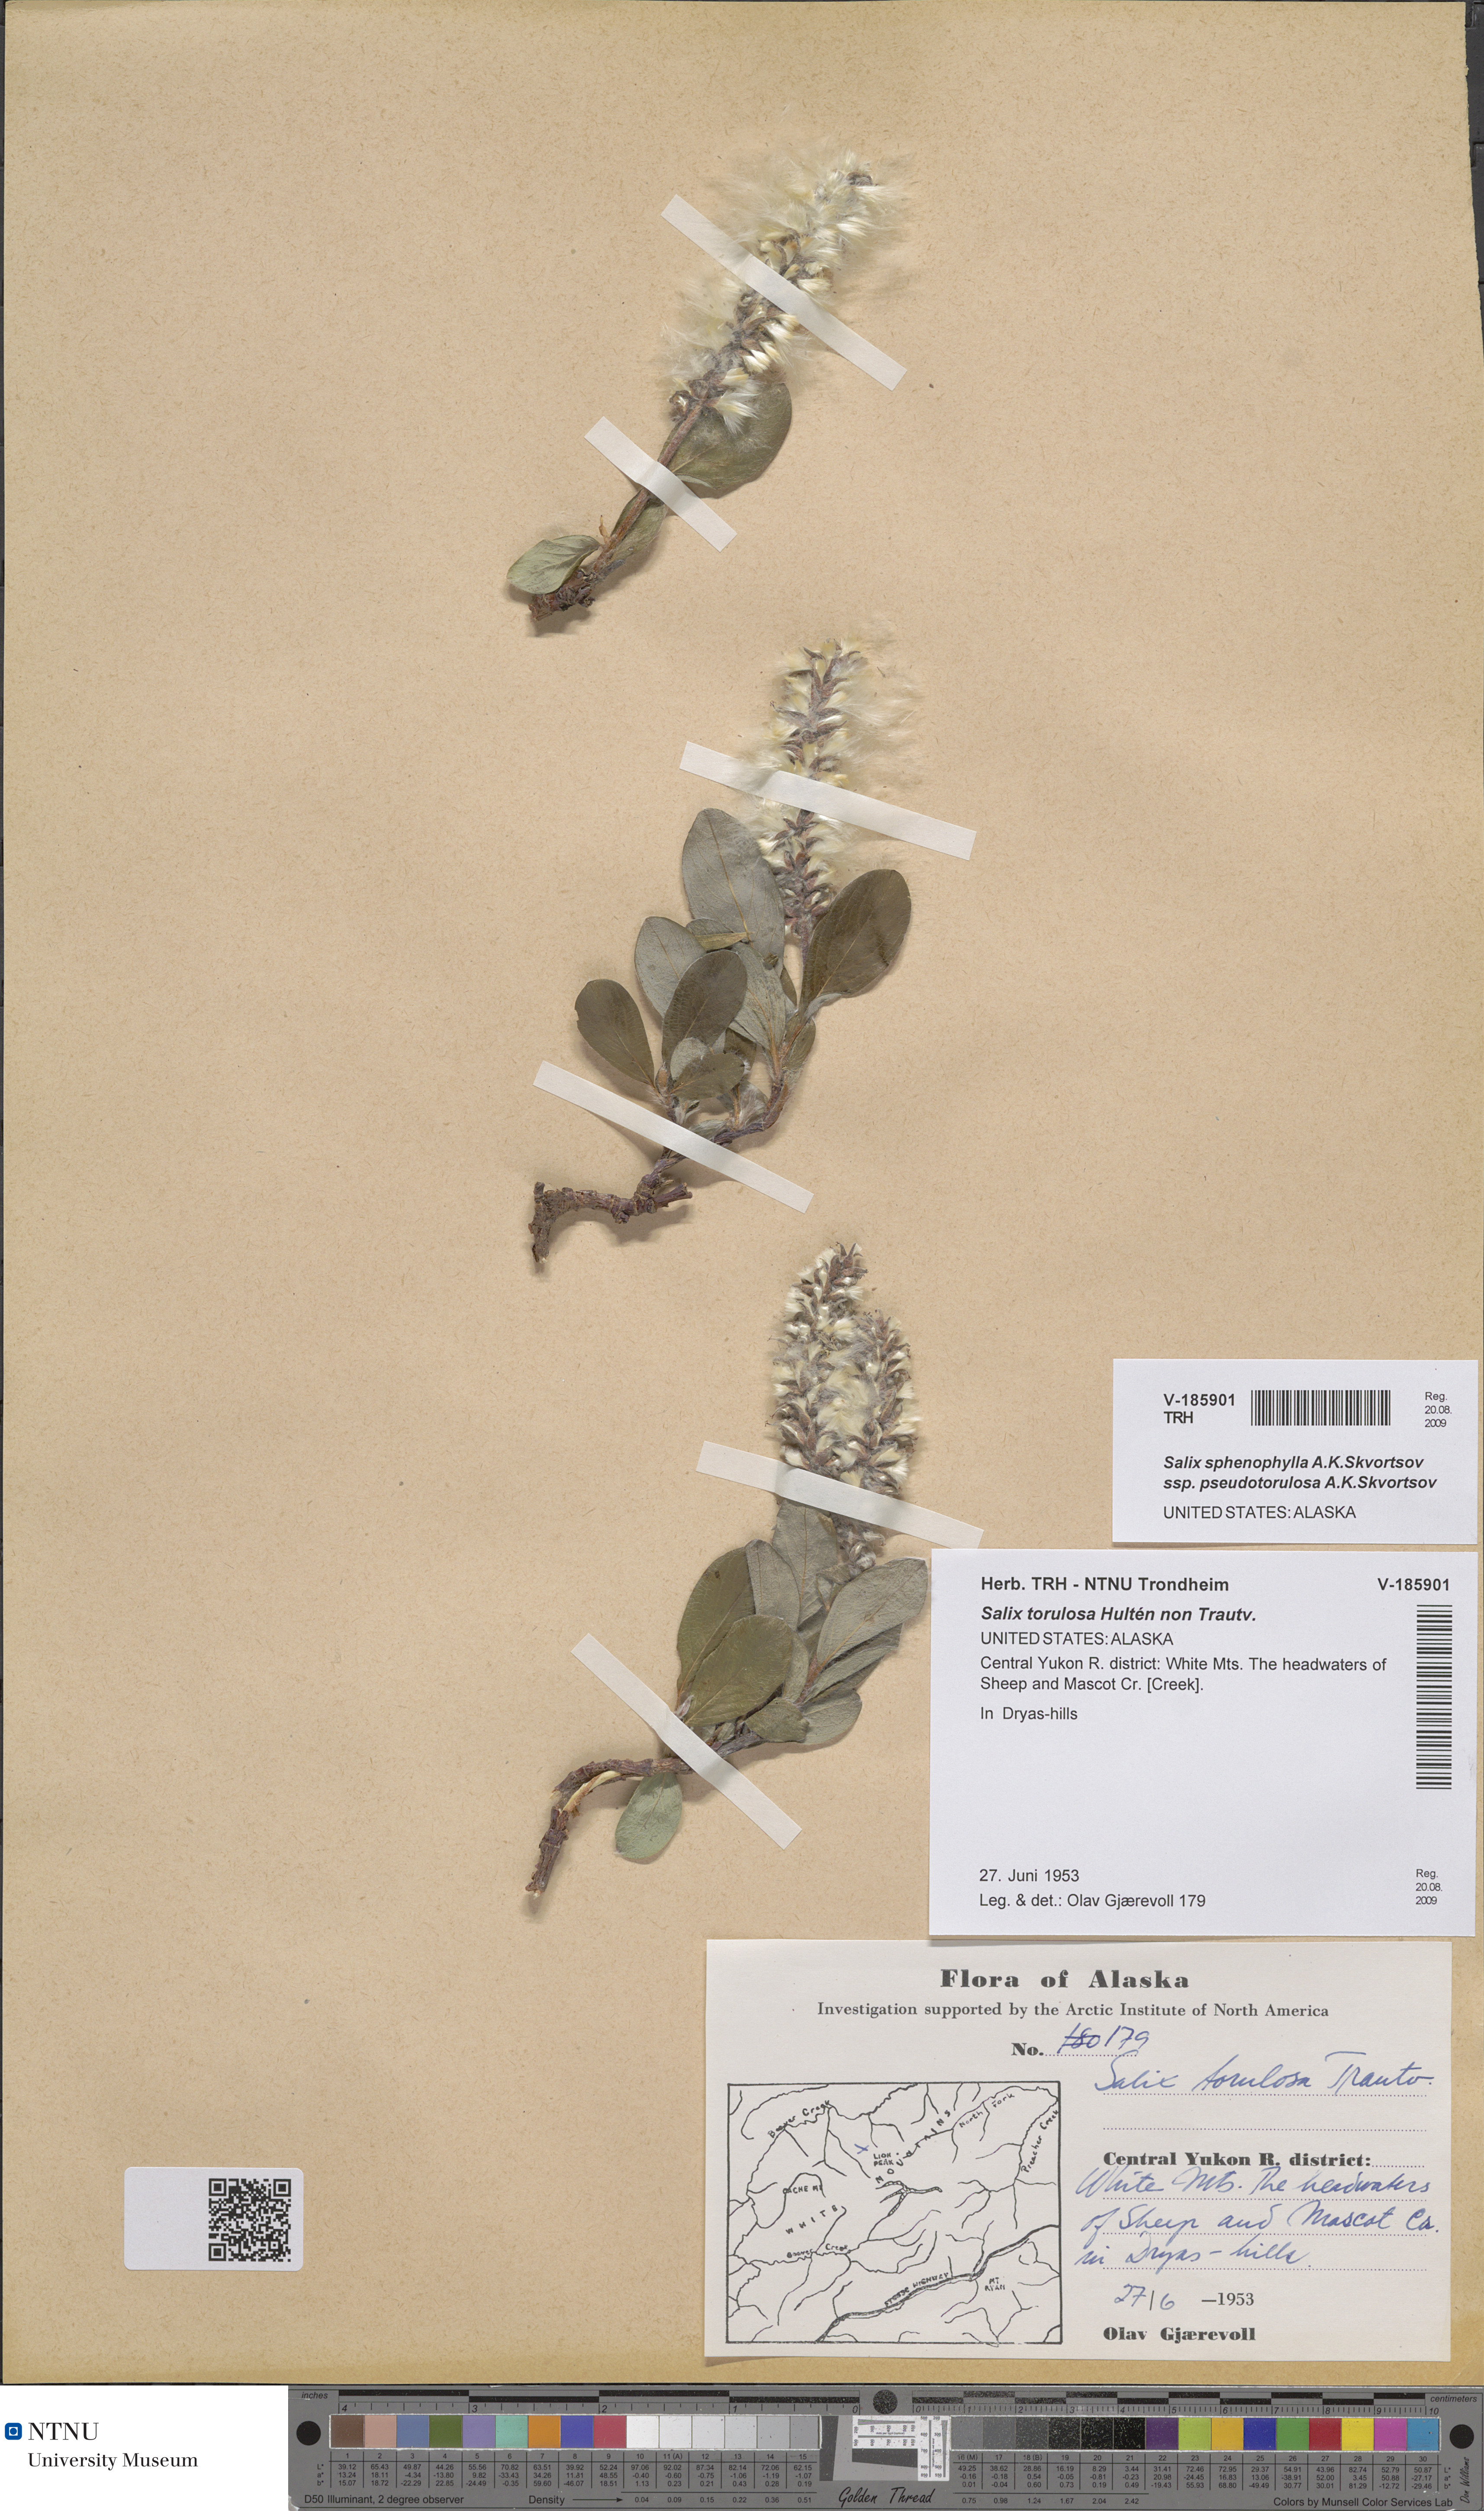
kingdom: Plantae
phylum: Tracheophyta
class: Magnoliopsida
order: Malpighiales
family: Salicaceae
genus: Salix
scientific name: Salix sphenophylla
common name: Wedge-leaved willow
